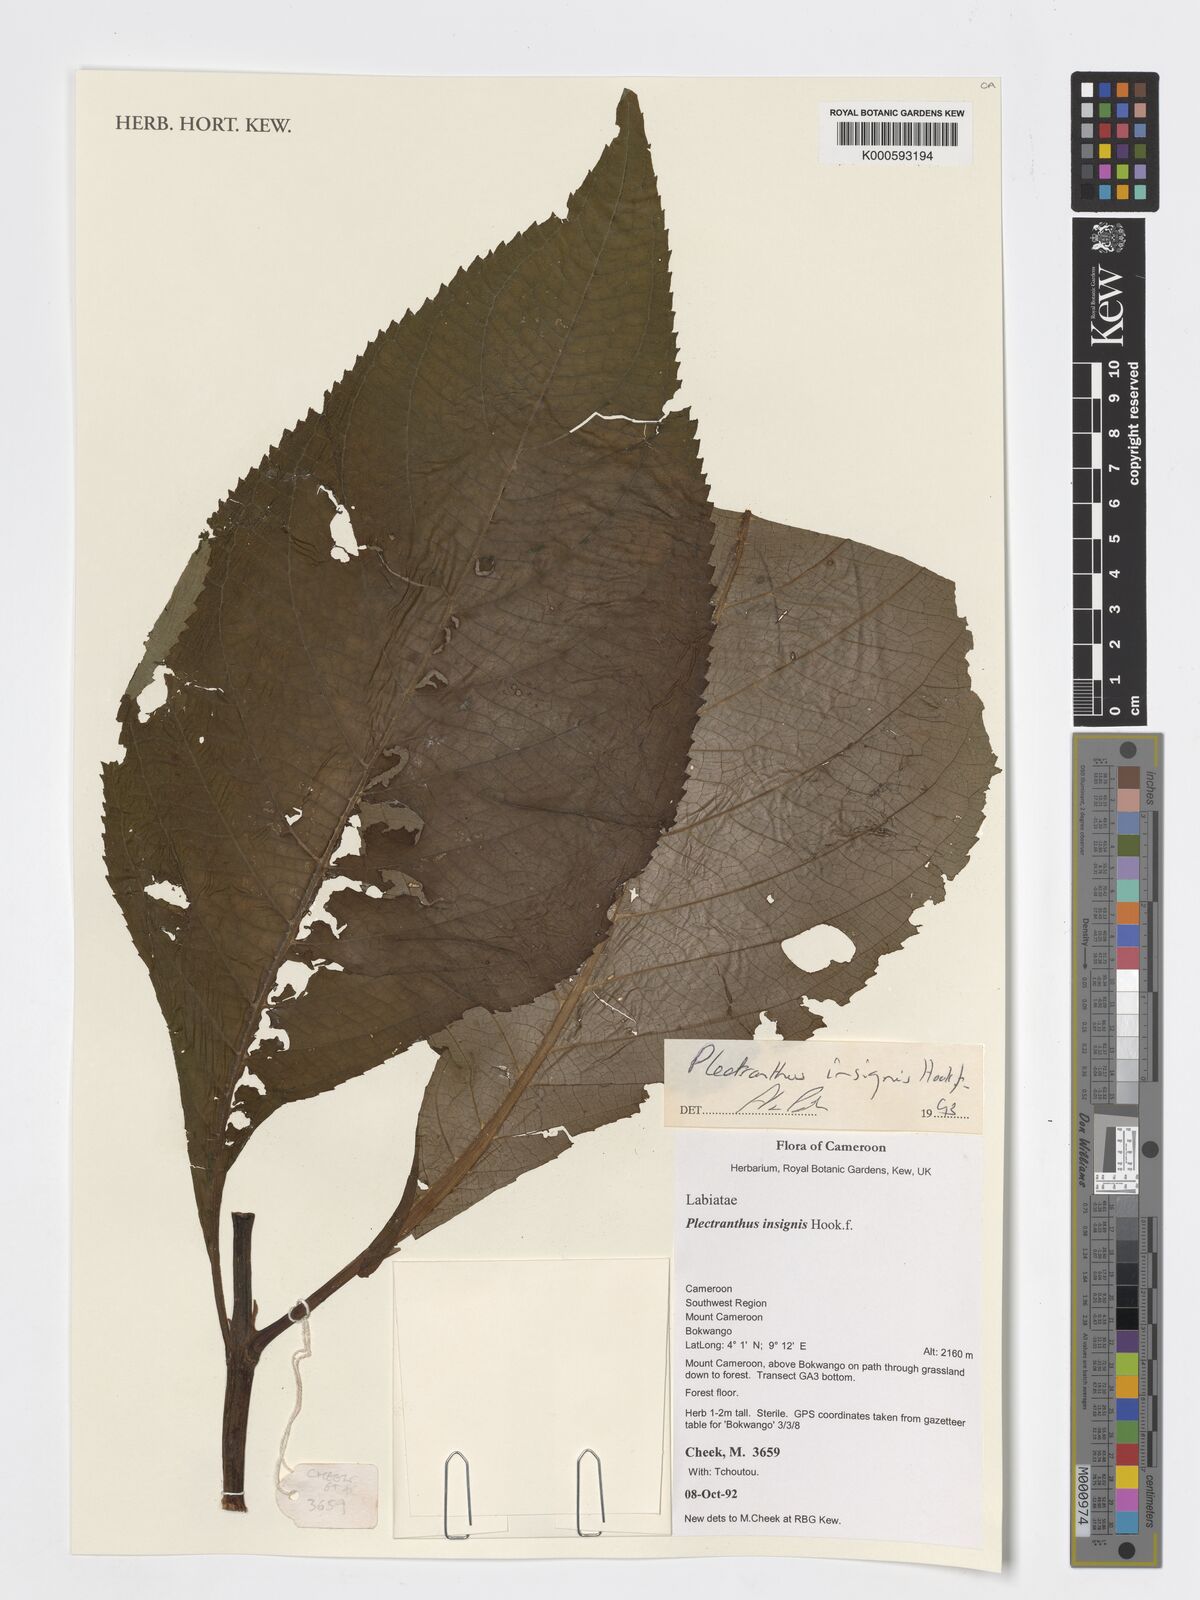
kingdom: Plantae
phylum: Tracheophyta
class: Magnoliopsida
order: Lamiales
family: Lamiaceae
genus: Coleus
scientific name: Coleus insignis
